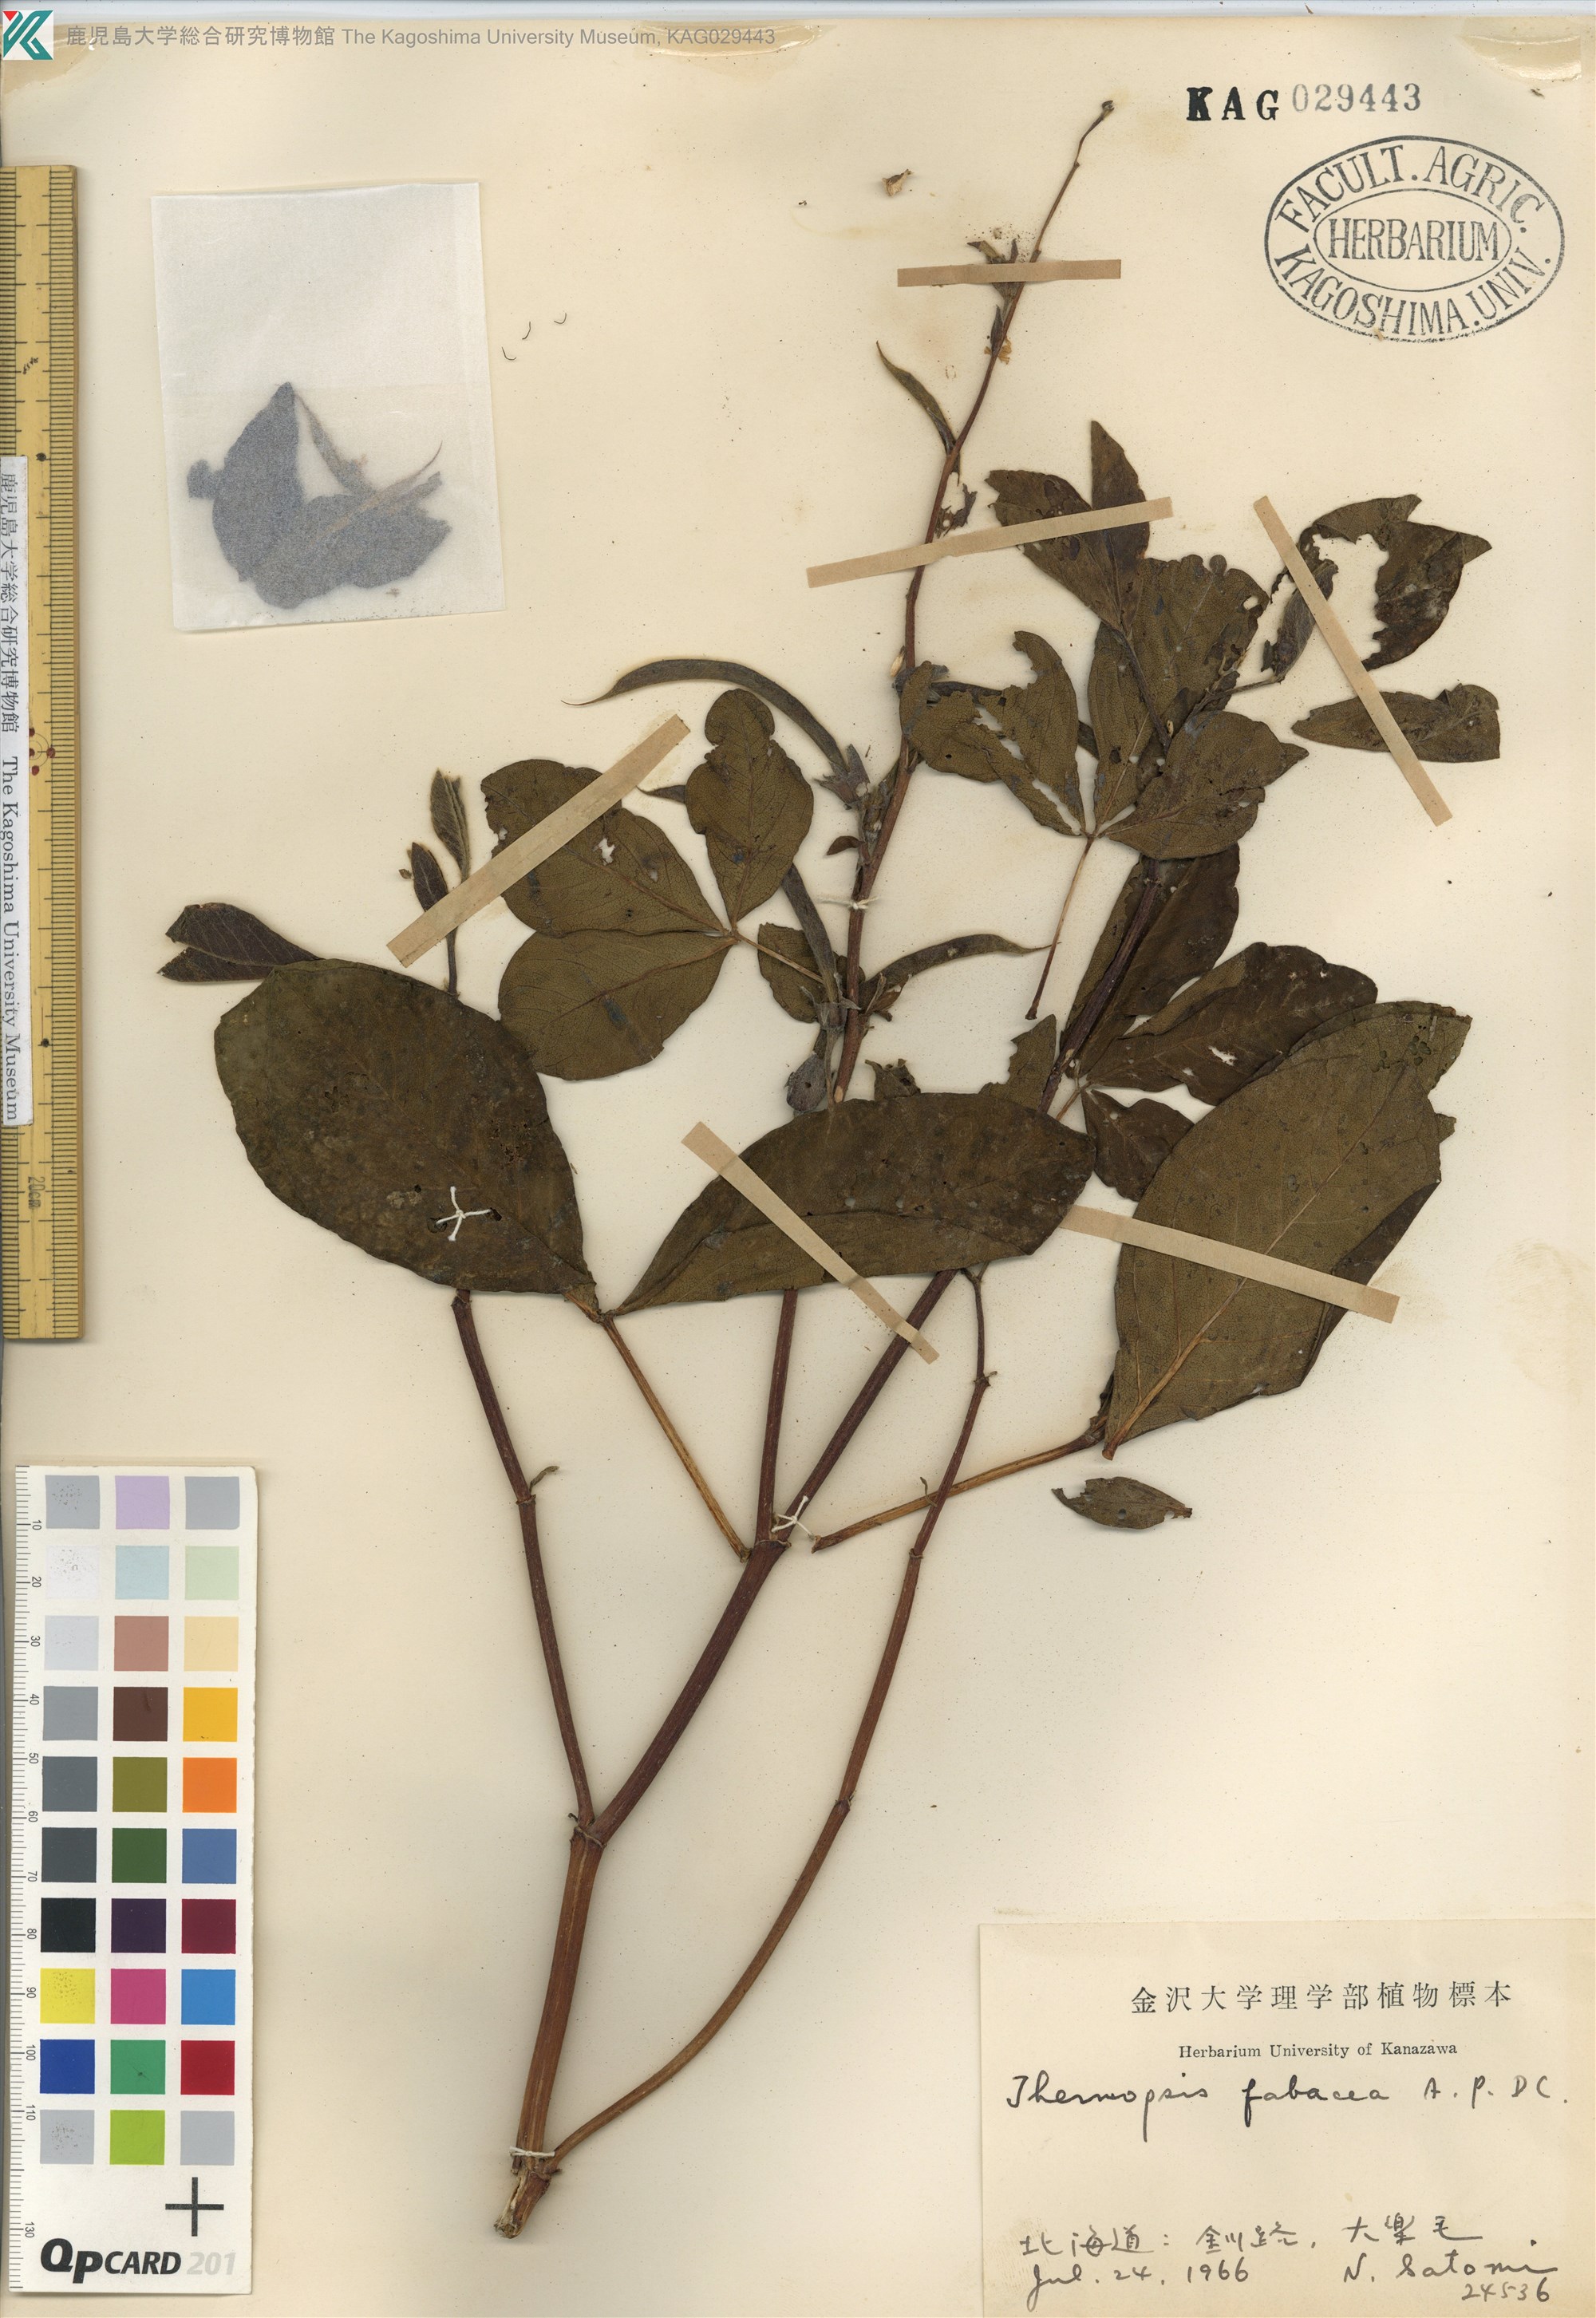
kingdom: Plantae
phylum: Tracheophyta
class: Magnoliopsida
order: Fabales
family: Fabaceae
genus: Thermopsis
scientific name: Thermopsis lanceolata
